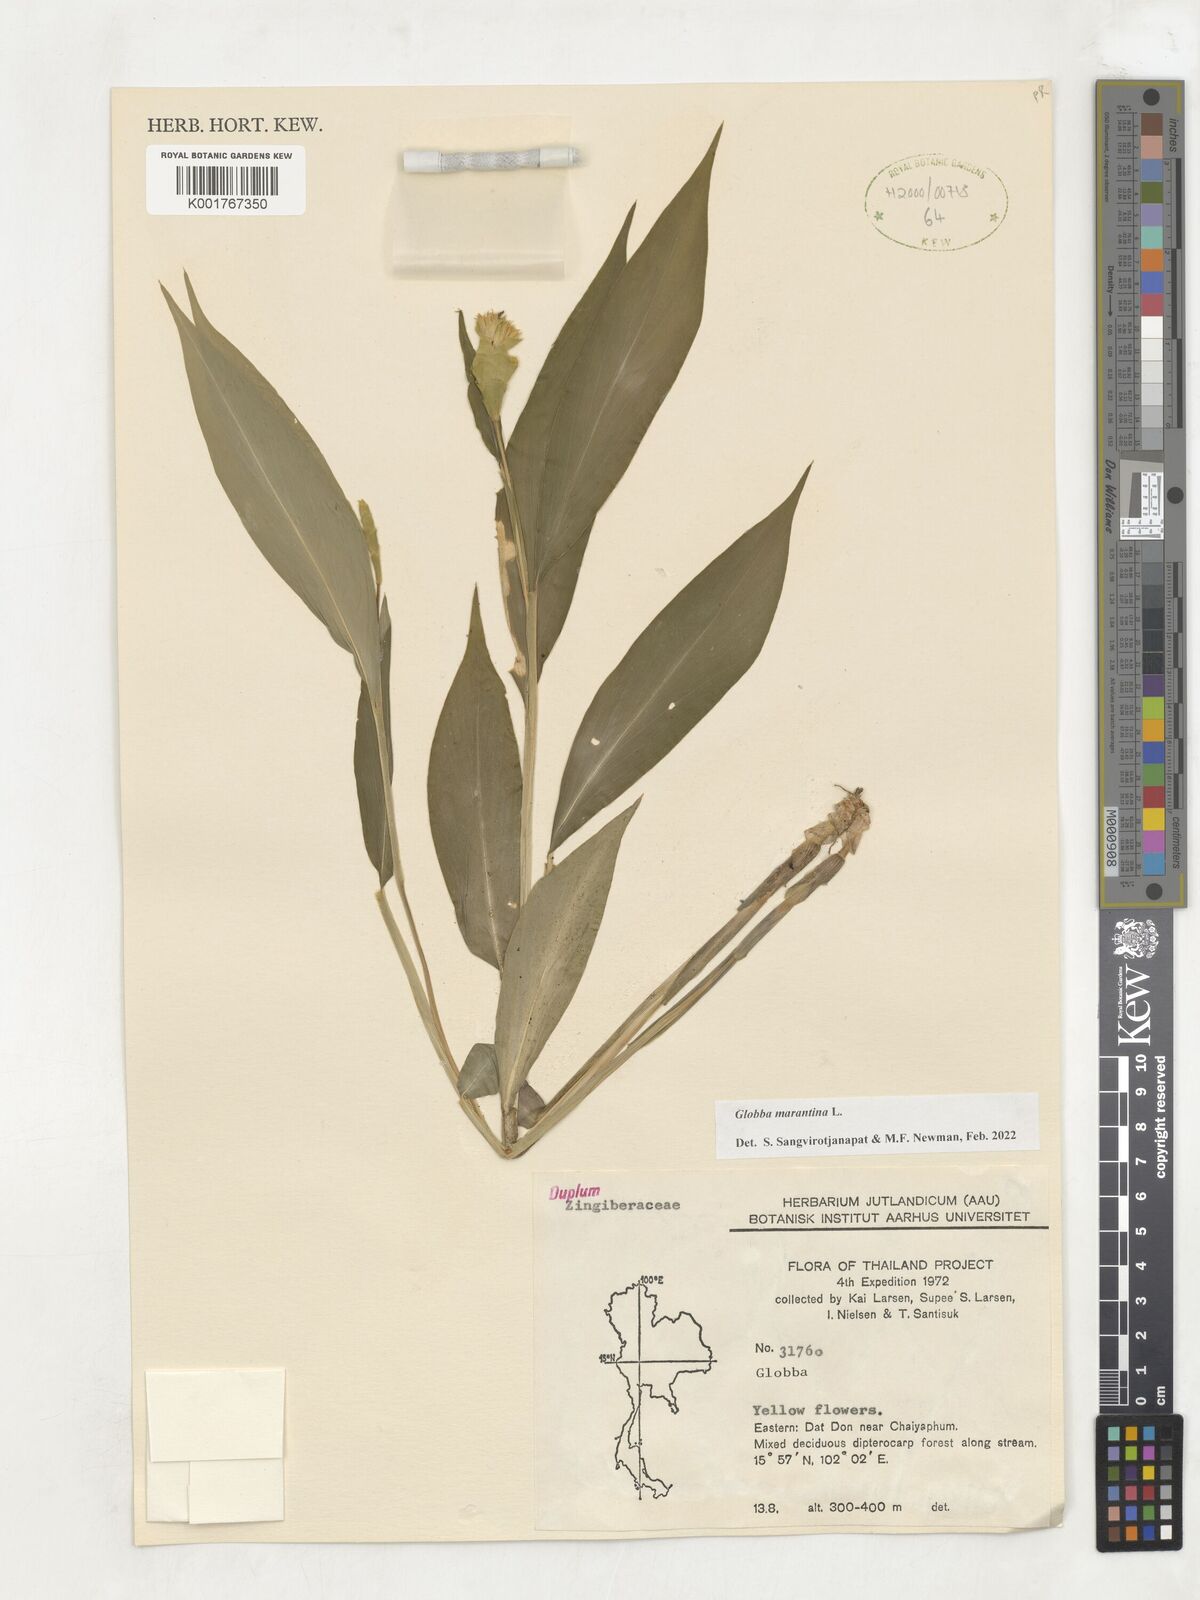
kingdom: Plantae
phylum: Tracheophyta
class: Liliopsida
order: Zingiberales
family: Zingiberaceae
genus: Globba
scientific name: Globba marantina
